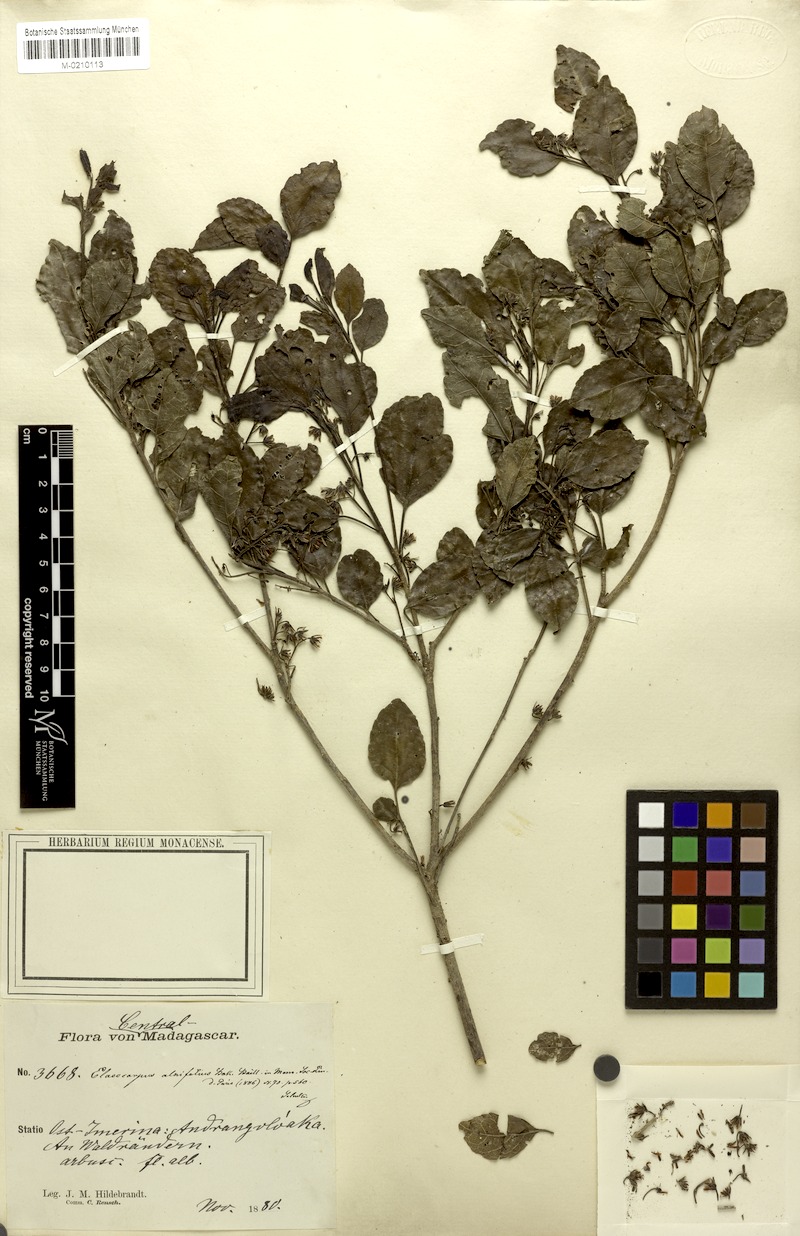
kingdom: Plantae
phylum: Tracheophyta
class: Magnoliopsida
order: Oxalidales
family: Elaeocarpaceae
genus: Elaeocarpus
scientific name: Elaeocarpus alnifolius
